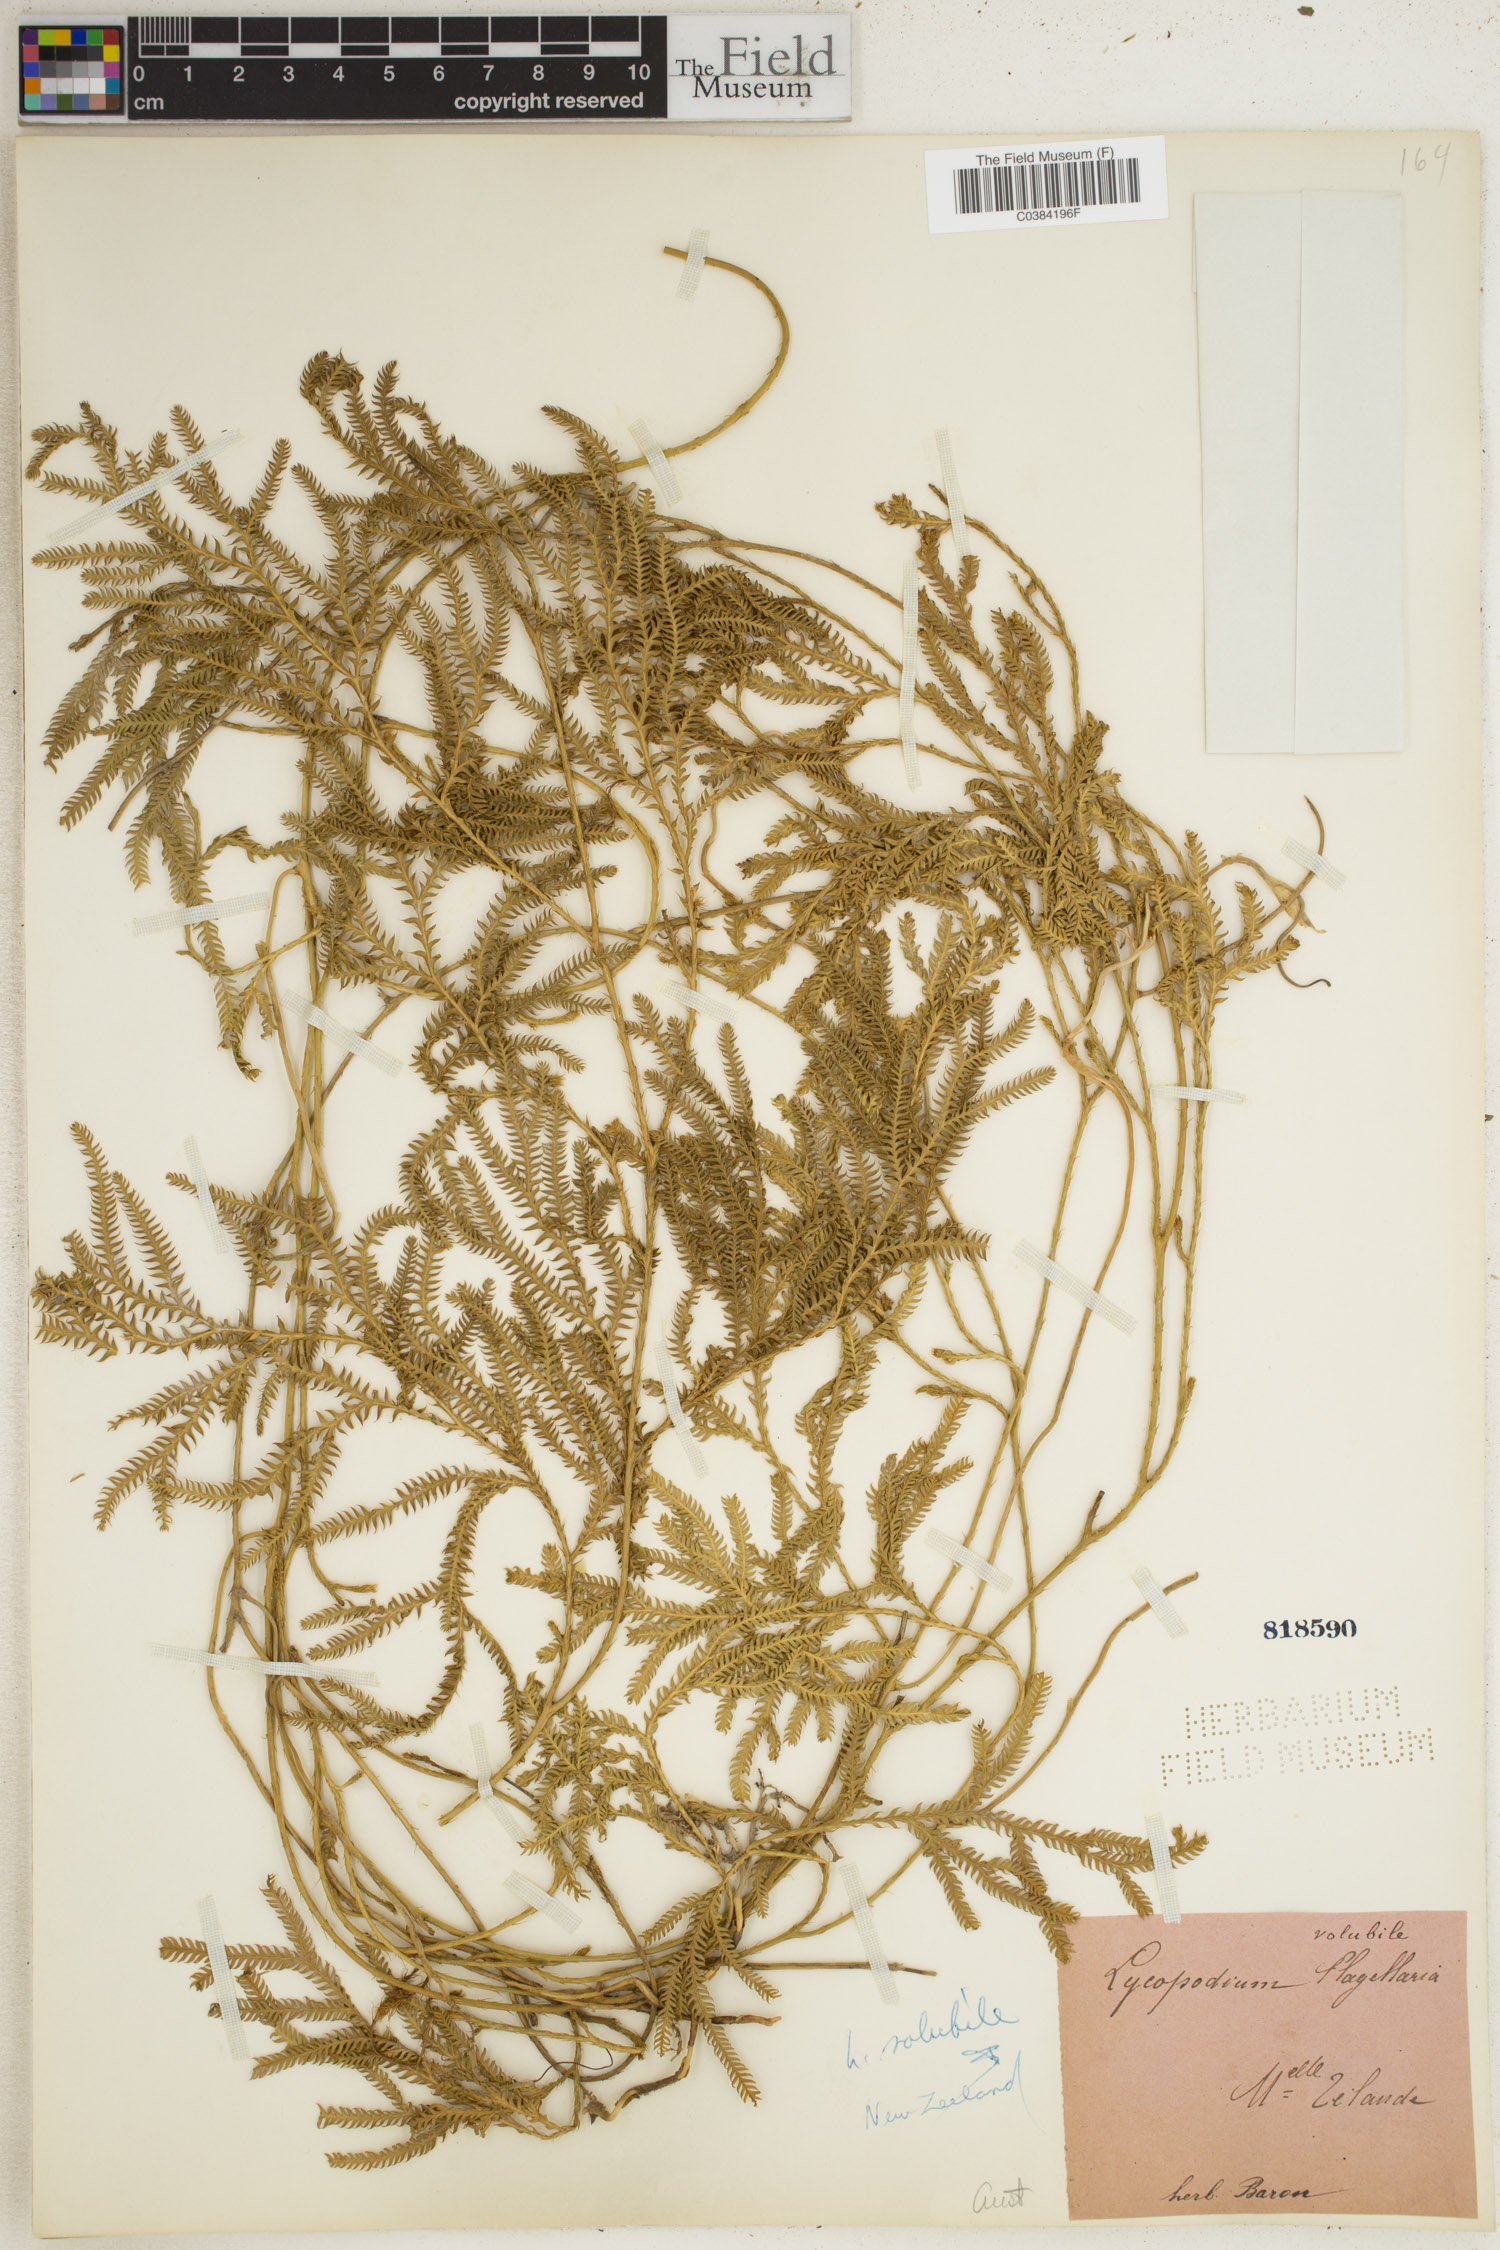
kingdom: Plantae
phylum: Tracheophyta
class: Lycopodiopsida
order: Lycopodiales
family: Lycopodiaceae
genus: Pseudodiphasium
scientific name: Pseudodiphasium volubile
